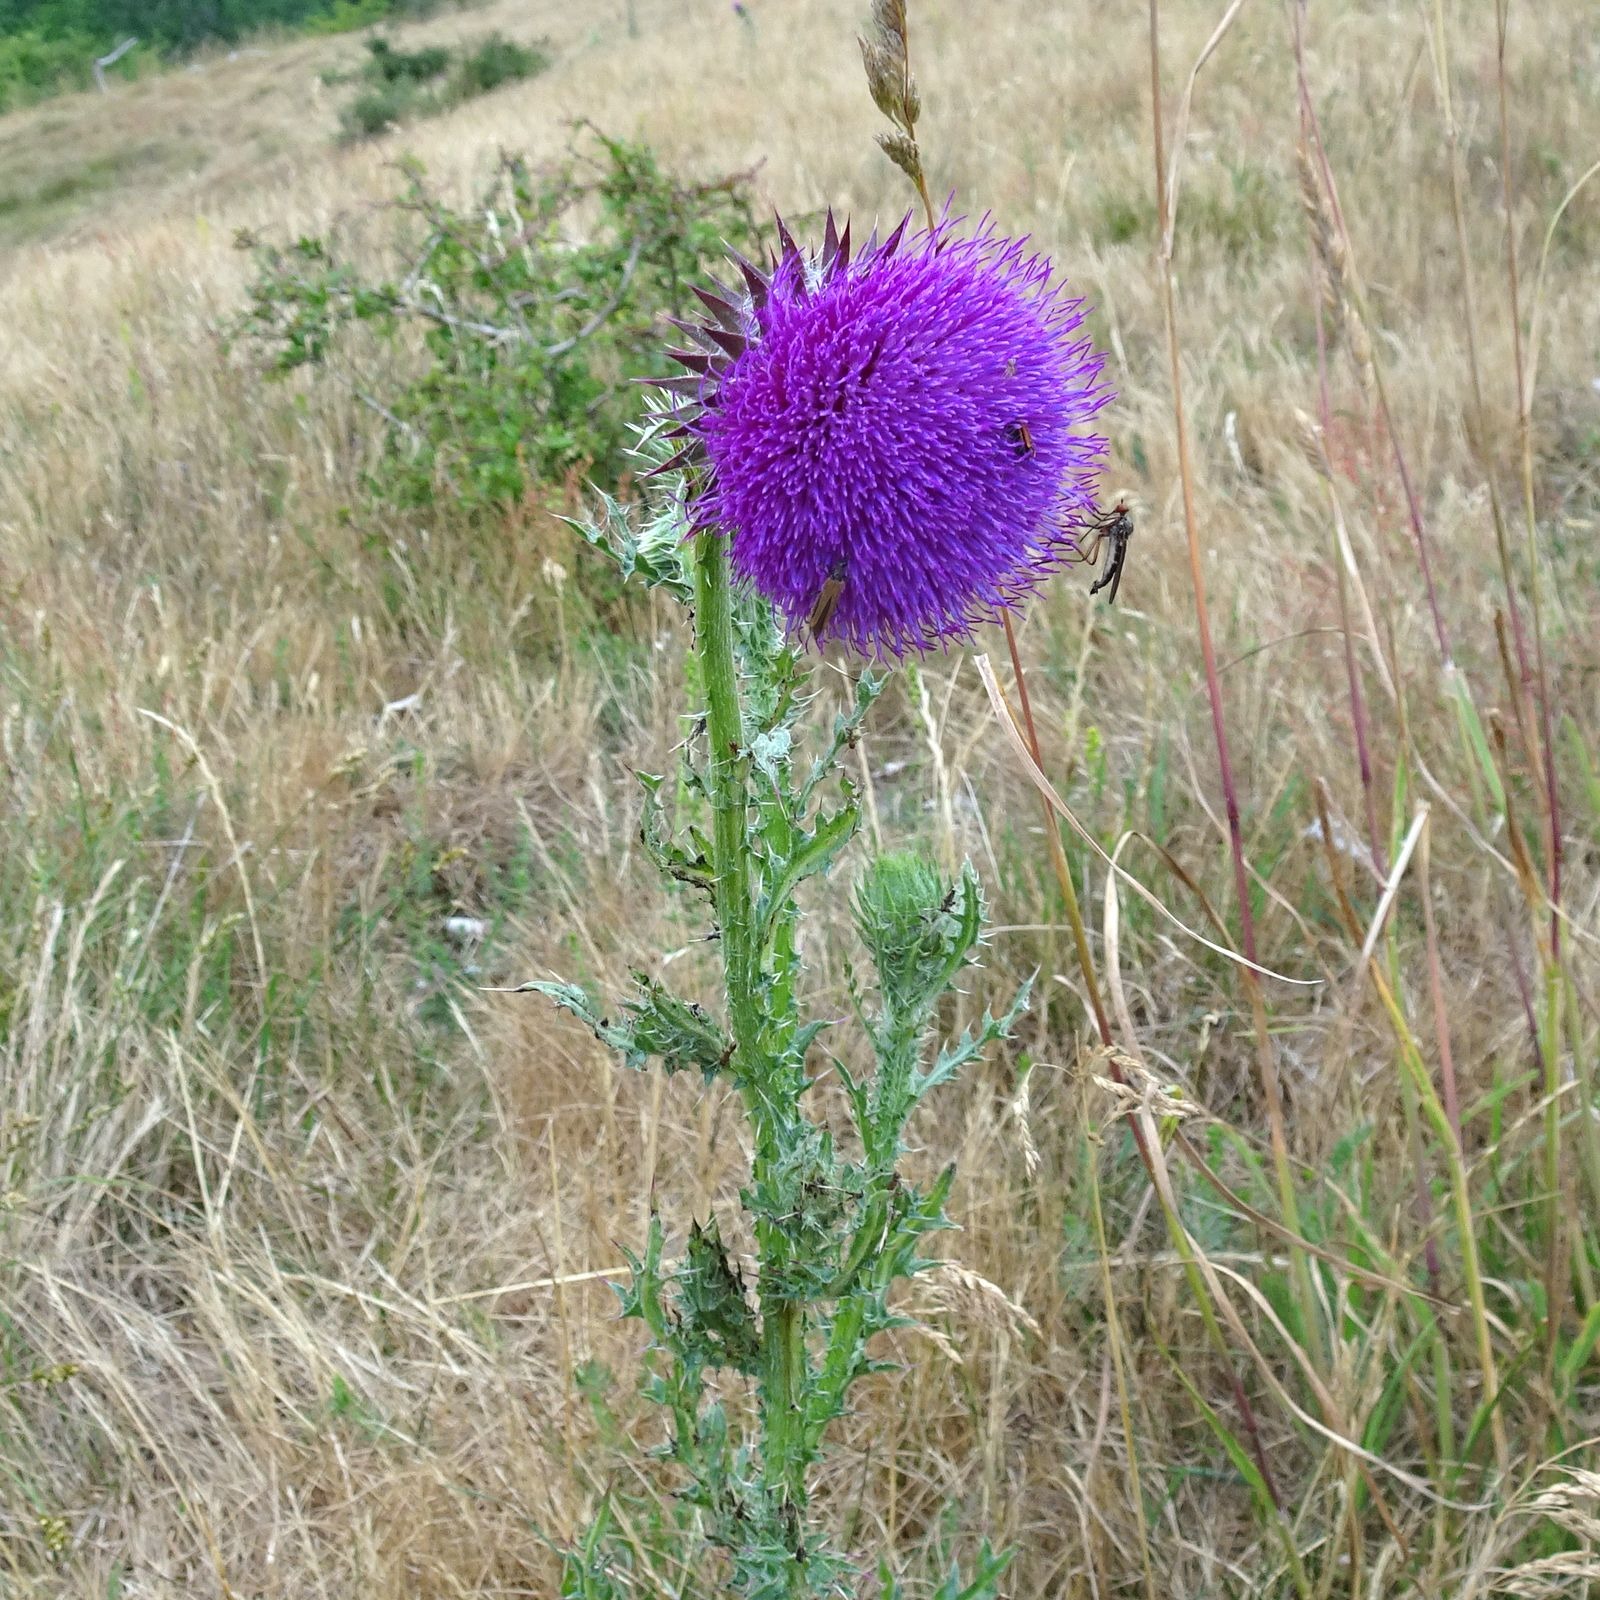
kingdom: Plantae
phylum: Tracheophyta
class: Magnoliopsida
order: Asterales
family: Asteraceae
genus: Carduus
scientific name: Carduus nutans
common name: Nikkende tidsel
